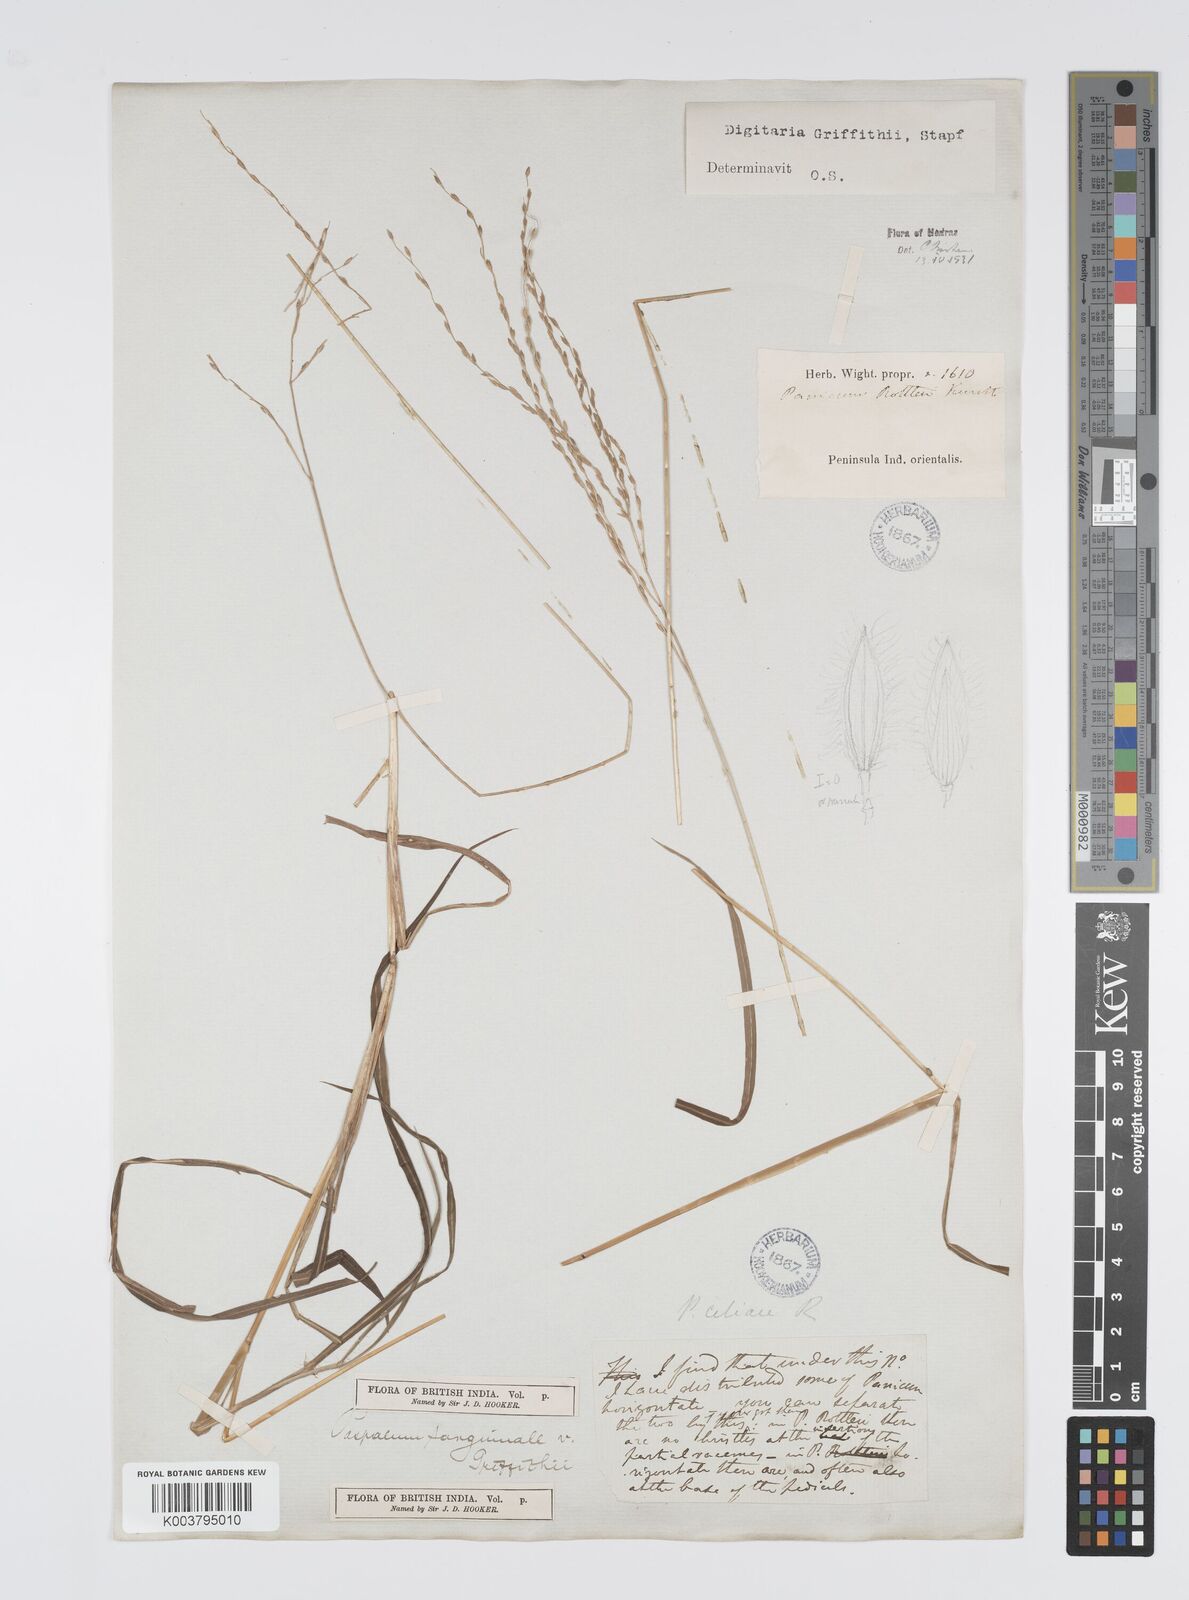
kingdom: Plantae
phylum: Tracheophyta
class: Liliopsida
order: Poales
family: Poaceae
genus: Digitaria
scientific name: Digitaria griffithii
